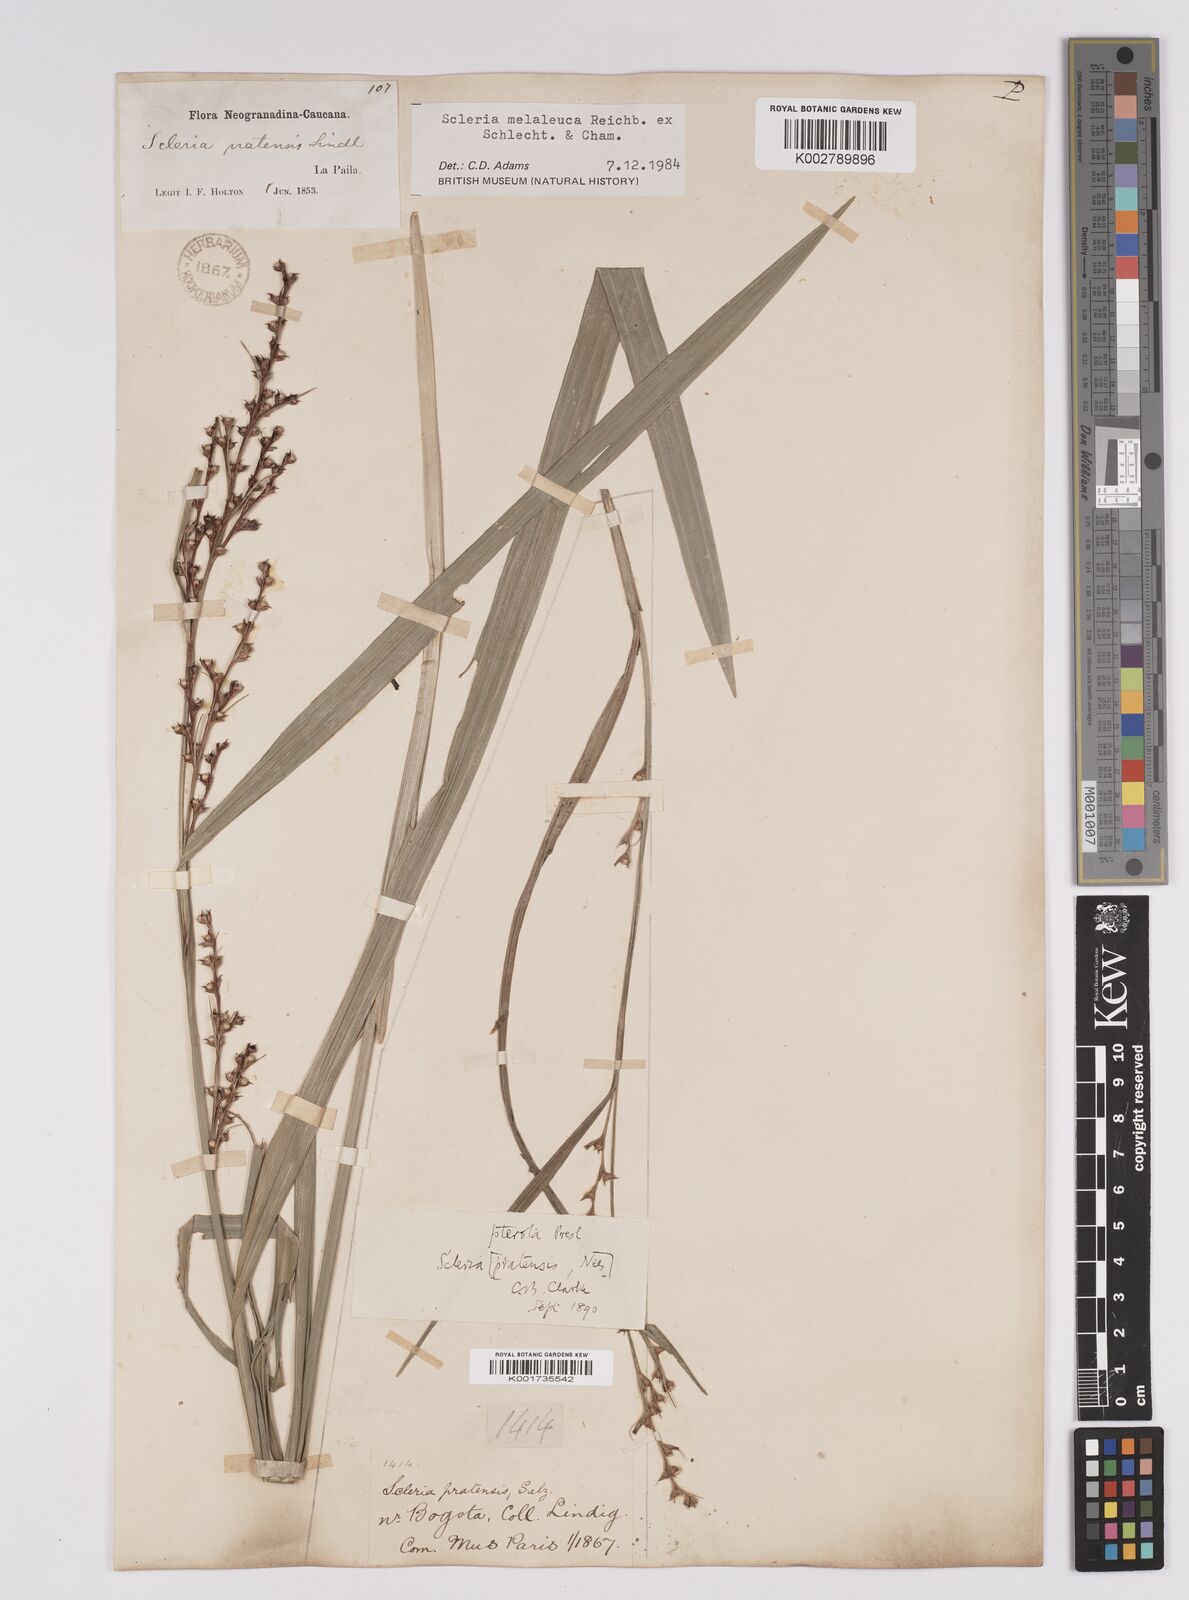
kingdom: Plantae
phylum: Tracheophyta
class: Liliopsida
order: Poales
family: Cyperaceae
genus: Scleria
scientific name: Scleria gaertneri
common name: Cortadera blanca
